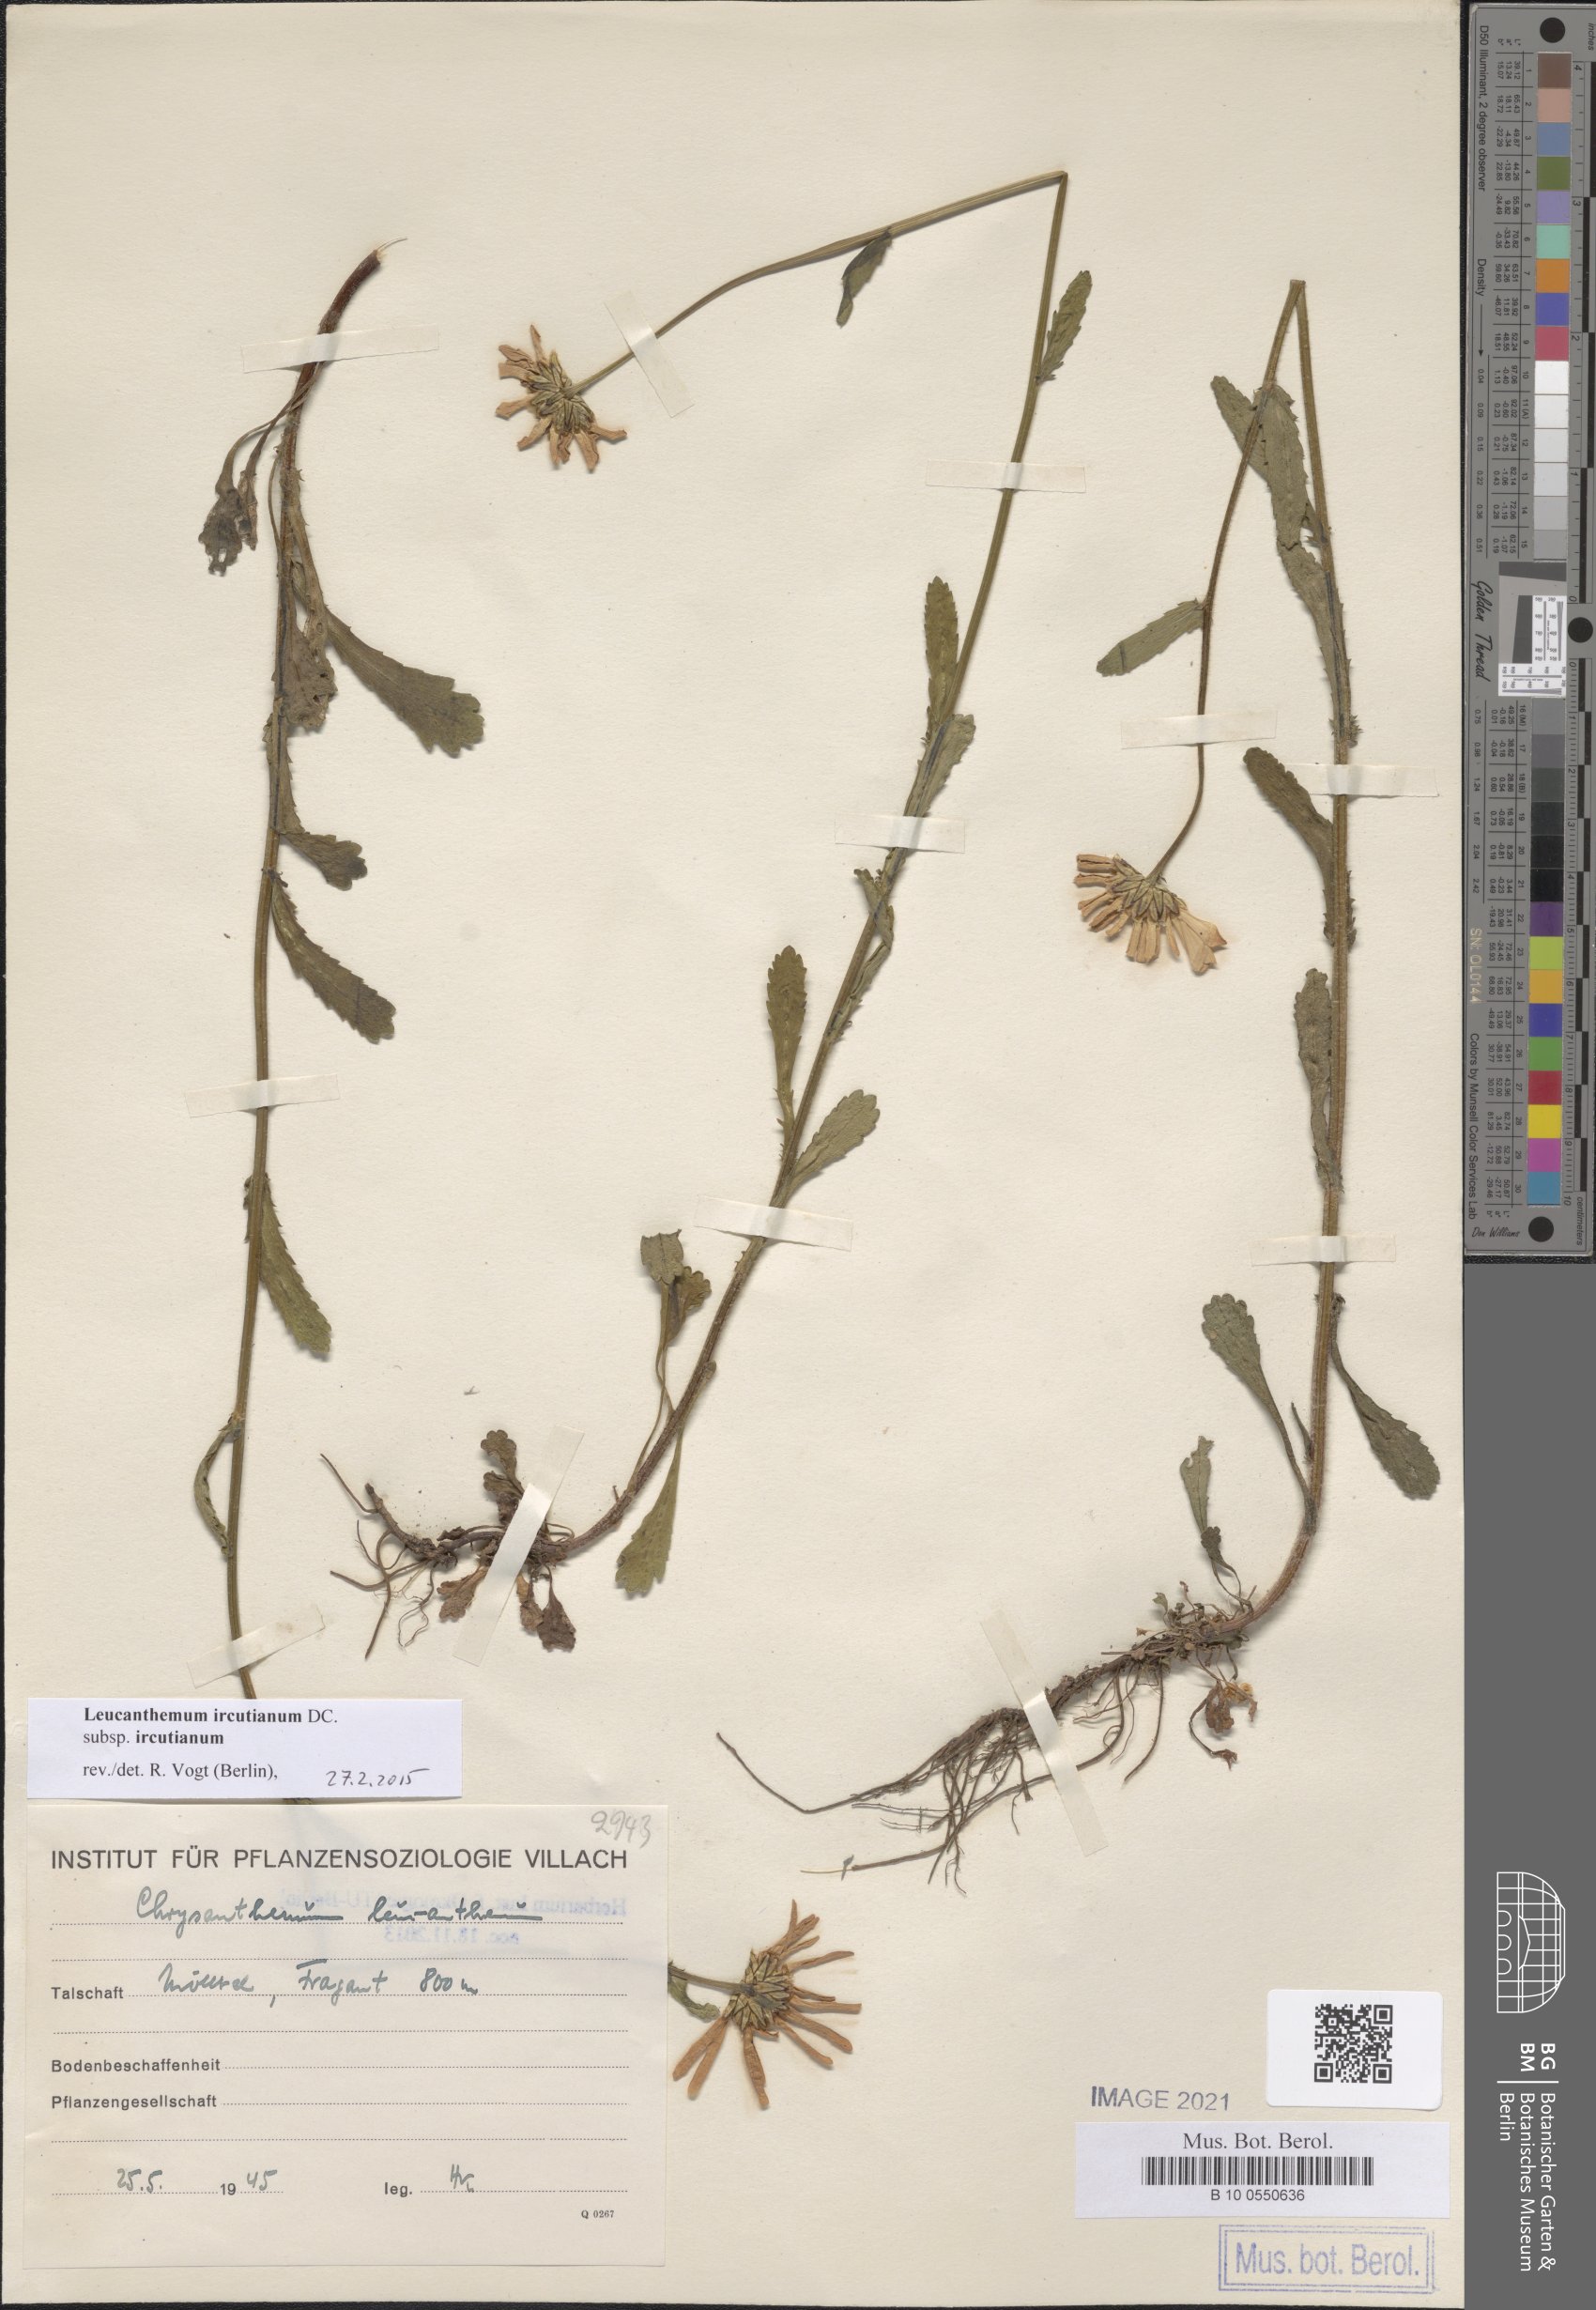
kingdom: Plantae
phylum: Tracheophyta
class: Magnoliopsida
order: Asterales
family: Asteraceae
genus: Leucanthemum
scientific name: Leucanthemum ircutianum
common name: Daisy
